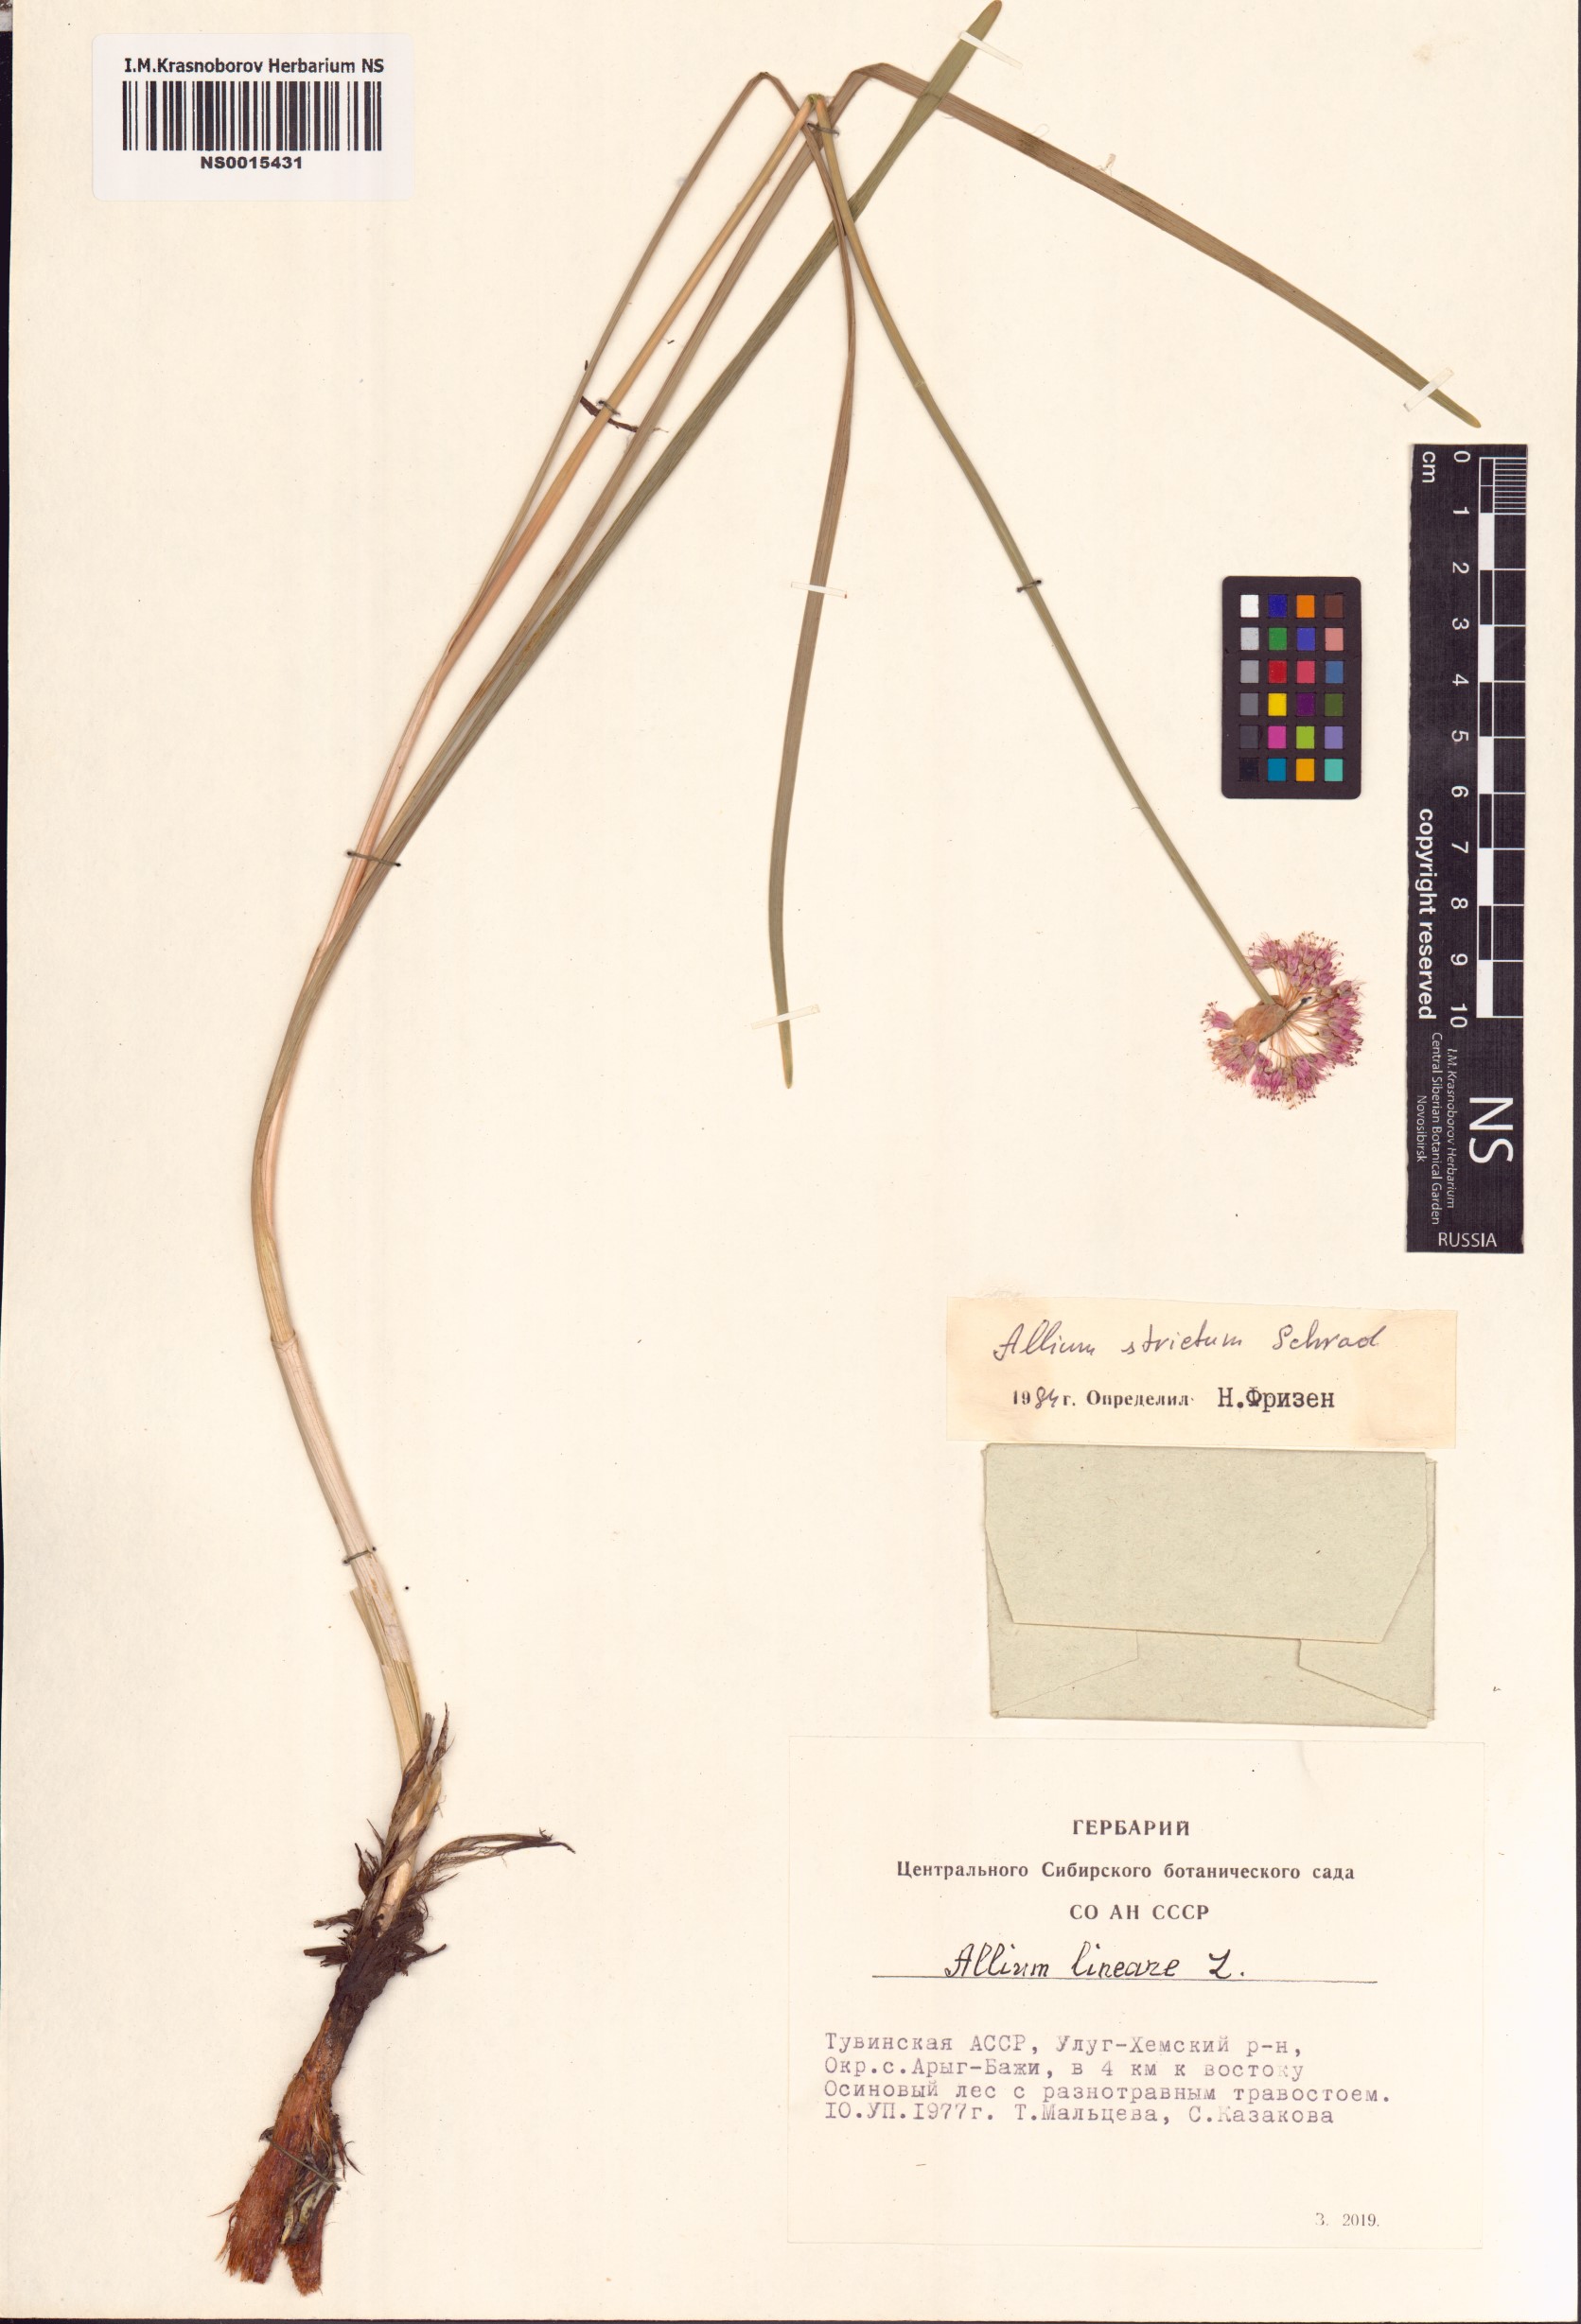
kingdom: Plantae
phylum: Tracheophyta
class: Liliopsida
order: Asparagales
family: Amaryllidaceae
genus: Allium
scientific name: Allium strictum
